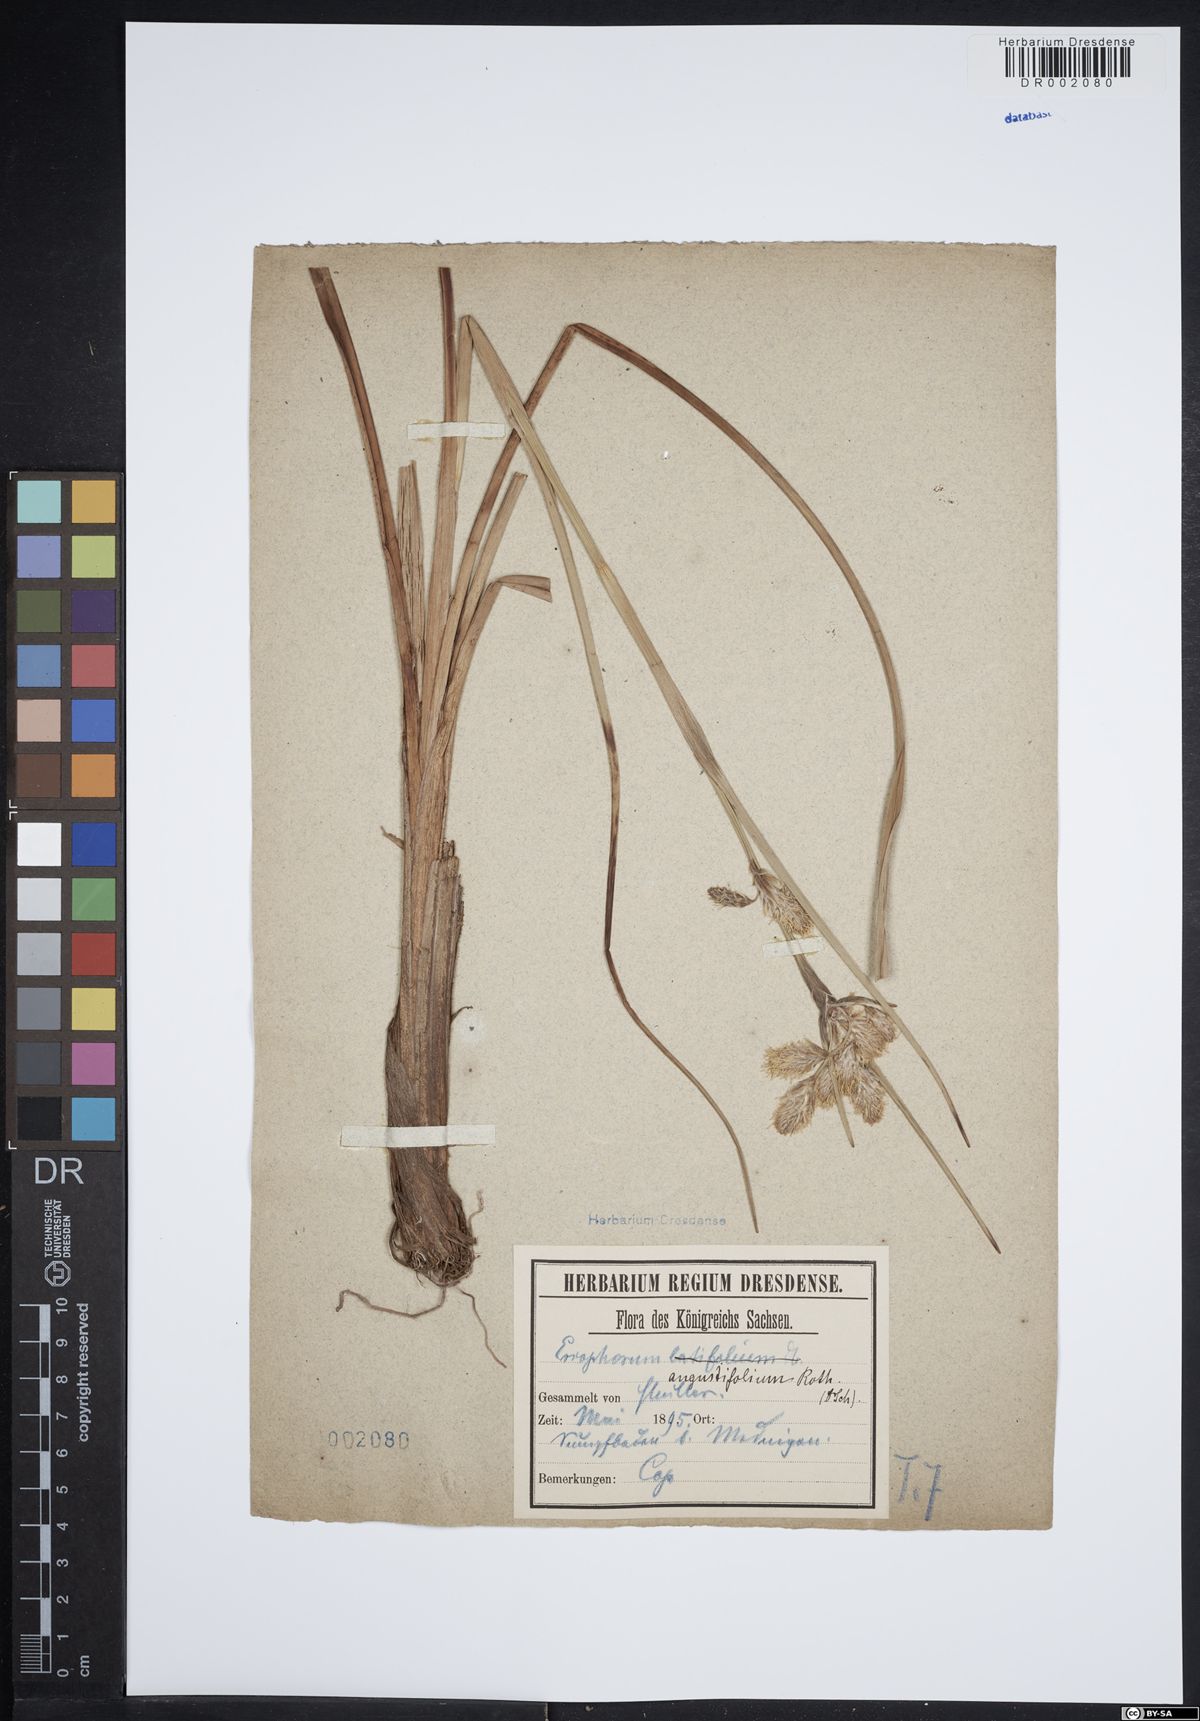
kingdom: Plantae
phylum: Tracheophyta
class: Liliopsida
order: Poales
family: Cyperaceae
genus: Eriophorum
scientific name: Eriophorum angustifolium
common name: Common cottongrass
